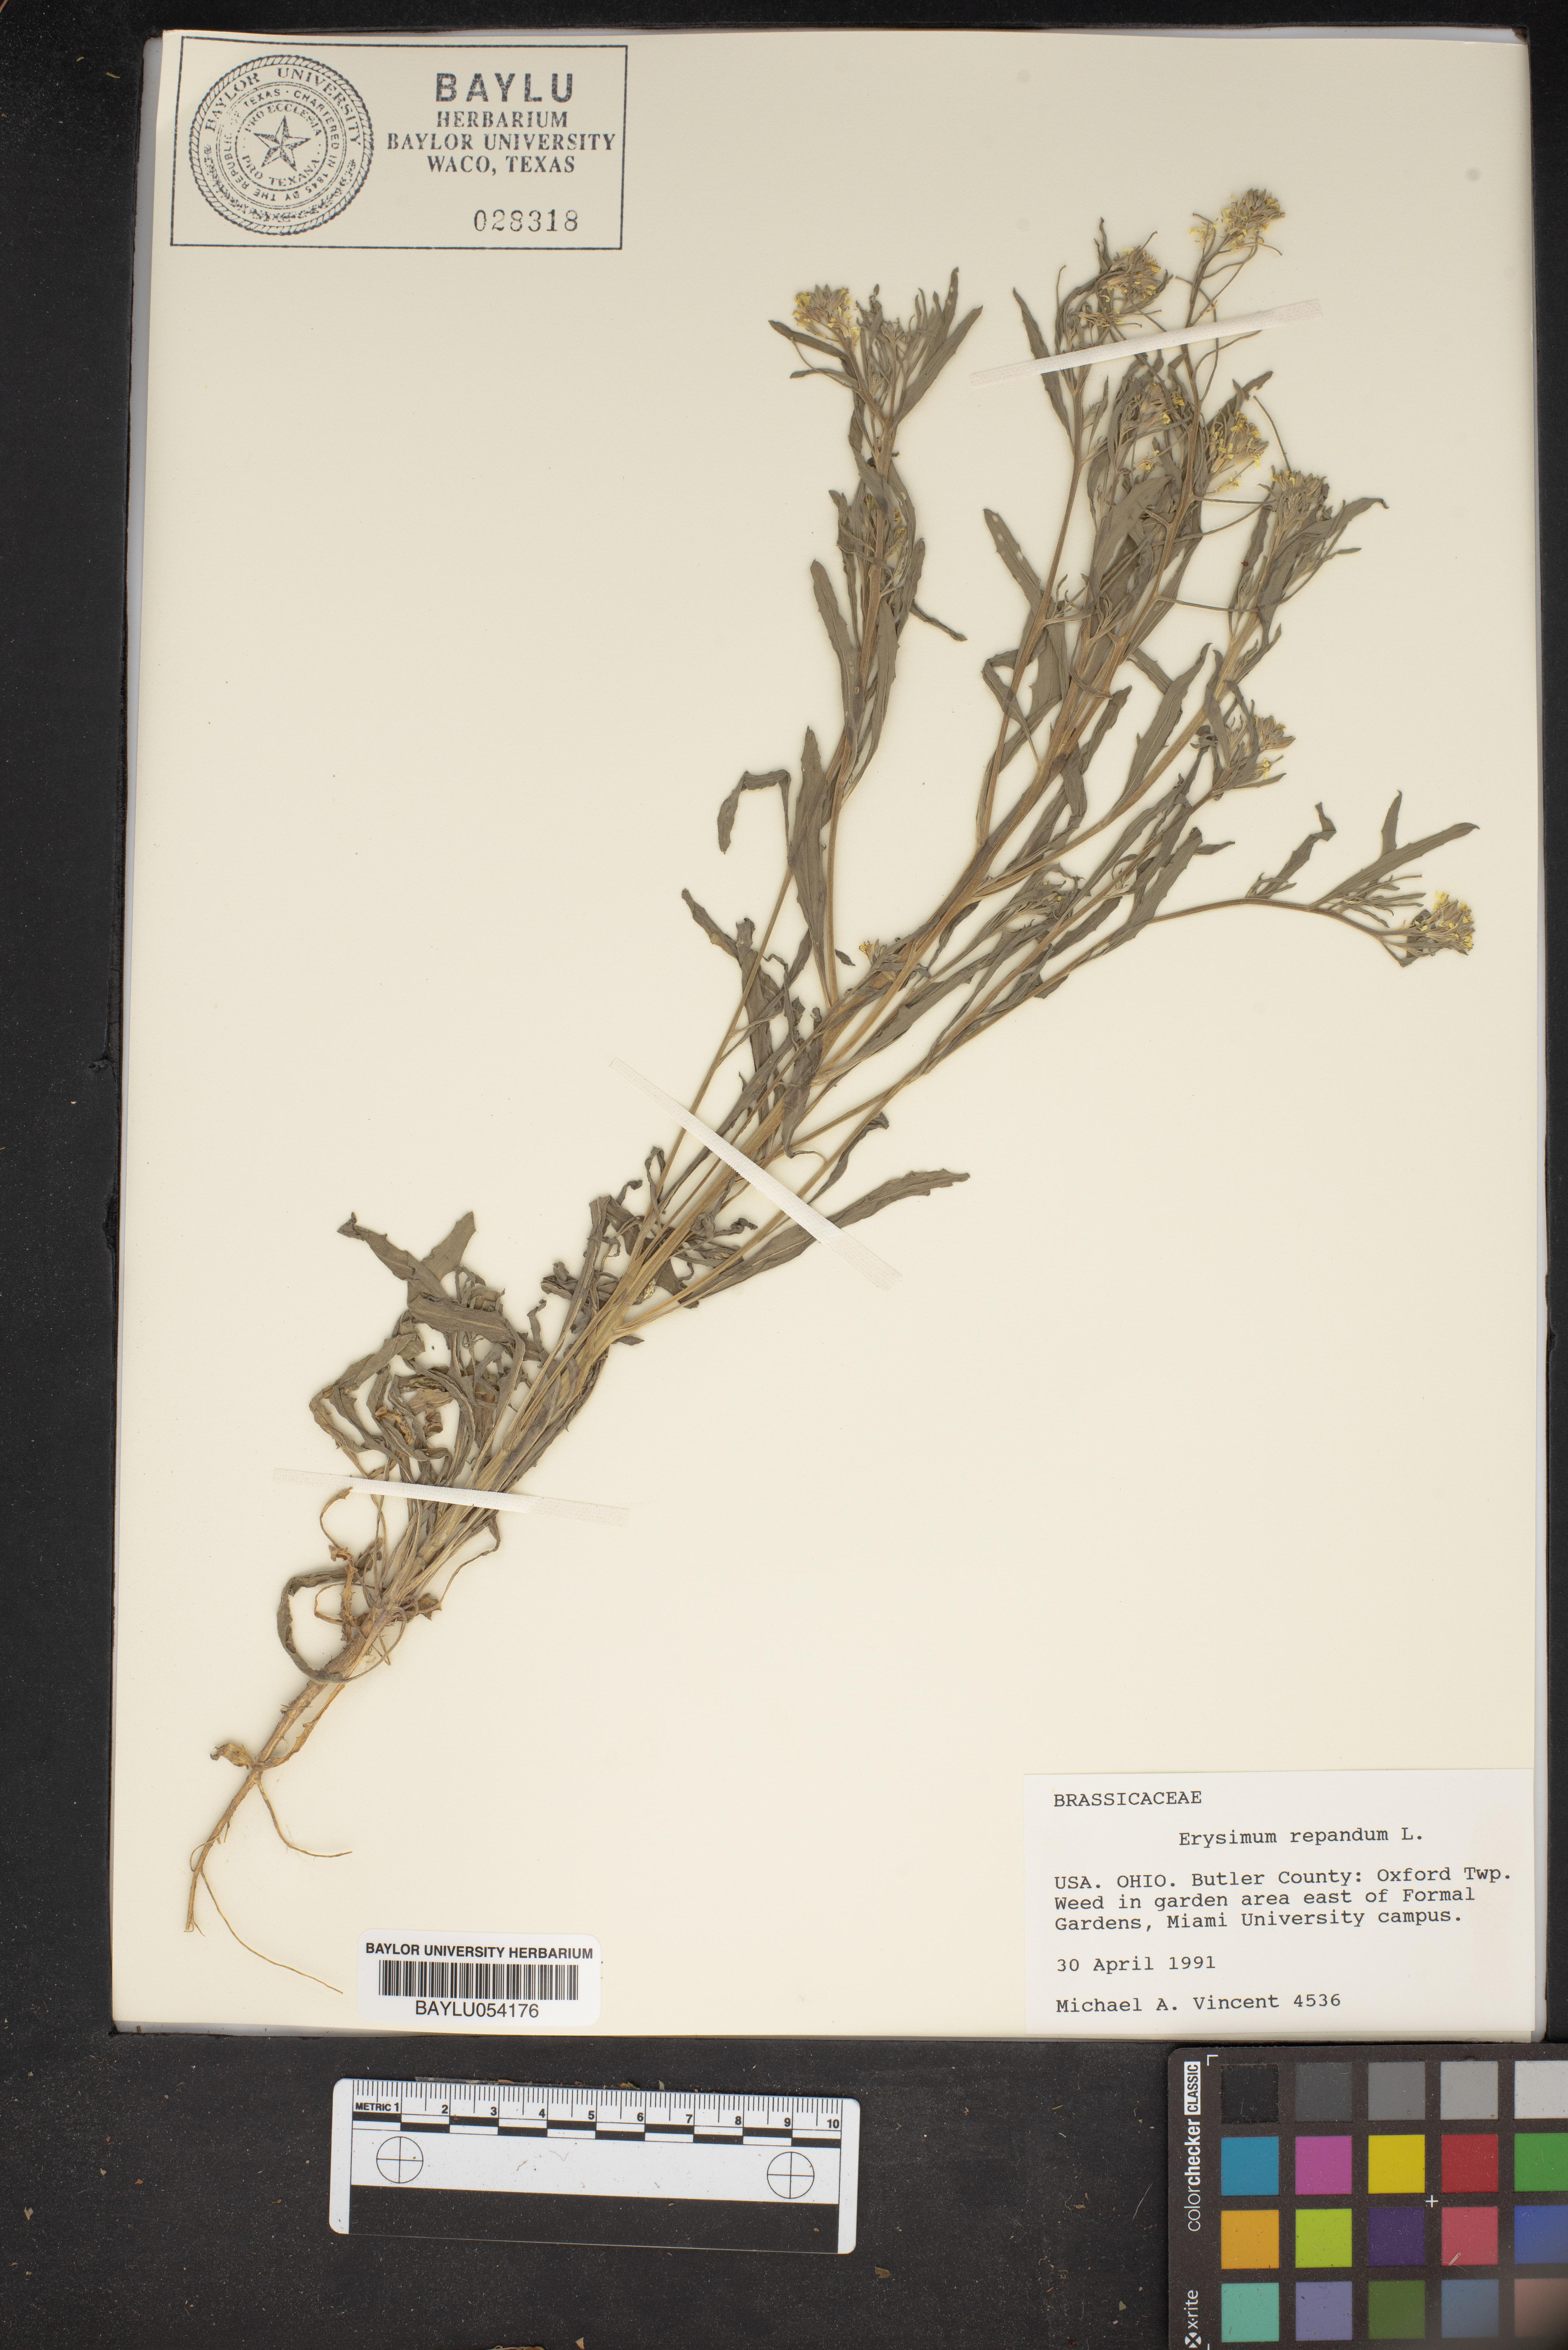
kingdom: Plantae
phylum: Tracheophyta
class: Magnoliopsida
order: Brassicales
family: Brassicaceae
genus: Erysimum
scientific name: Erysimum repandum
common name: Spreading wallflower
